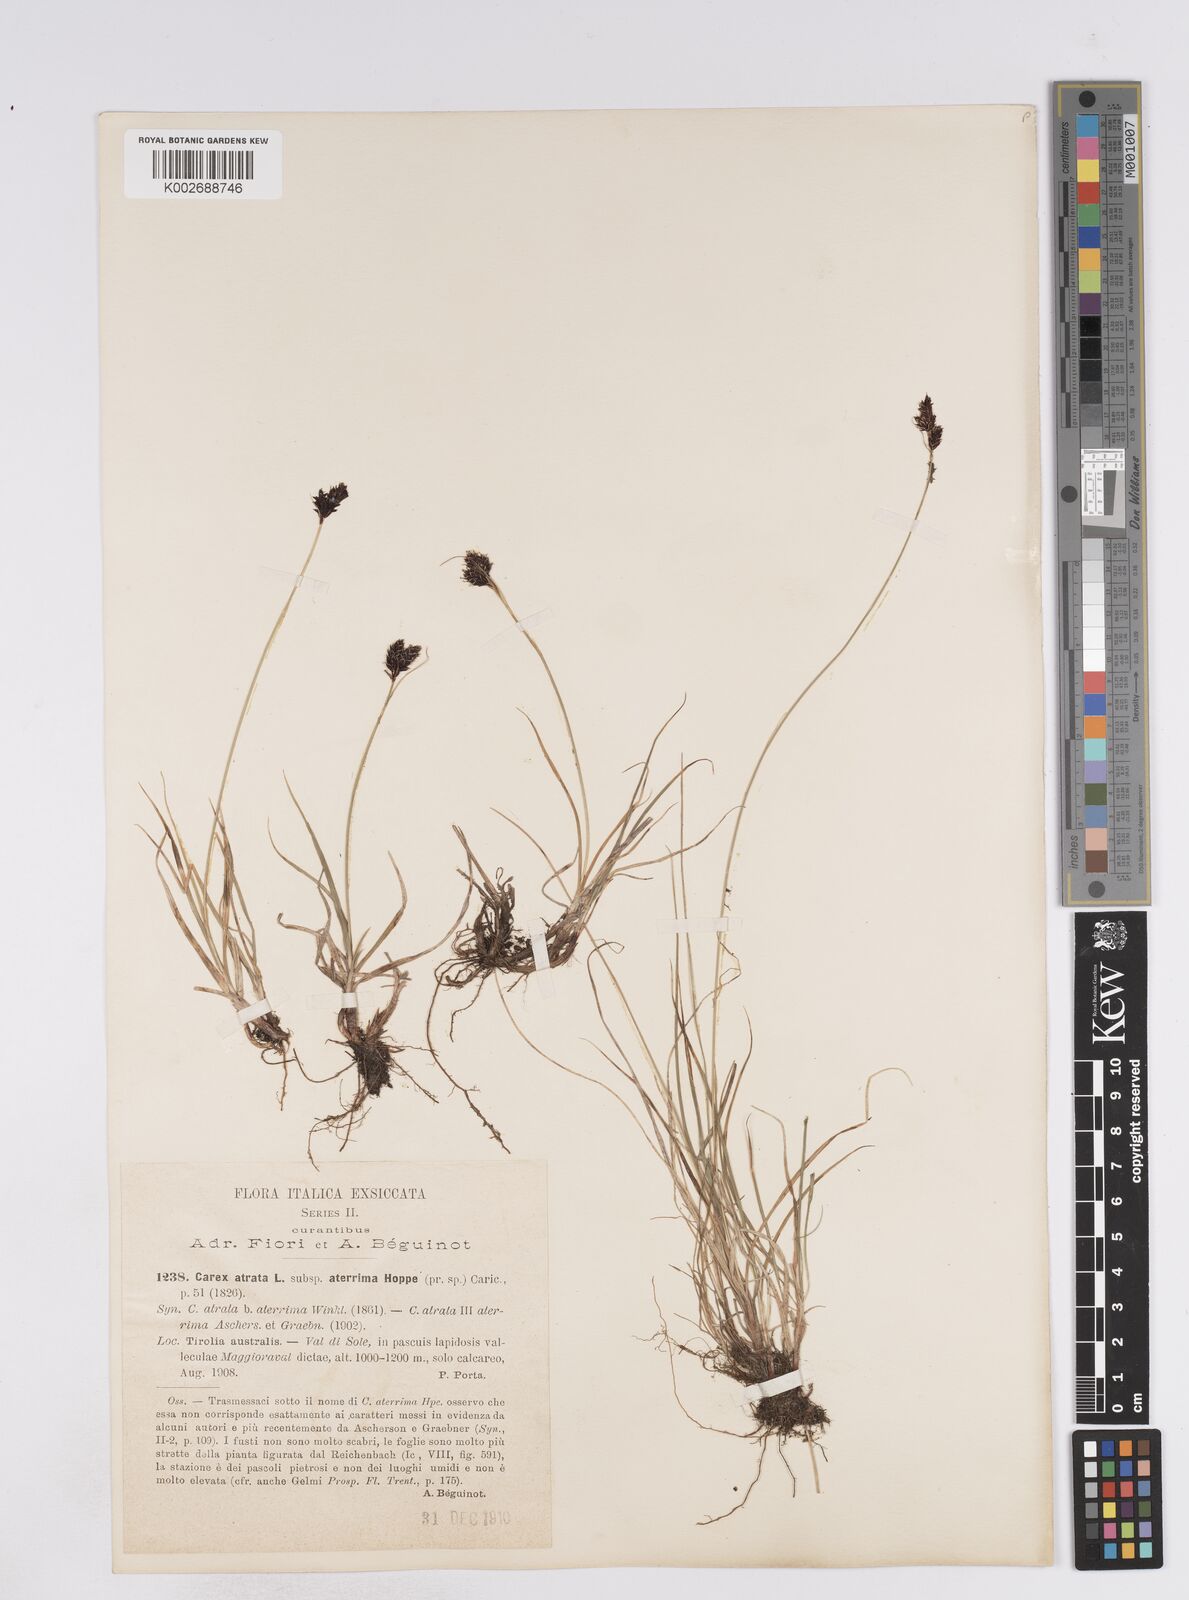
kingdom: Plantae
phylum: Tracheophyta
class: Liliopsida
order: Poales
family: Cyperaceae
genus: Carex
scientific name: Carex parviflora
